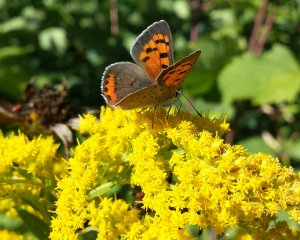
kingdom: Animalia
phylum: Arthropoda
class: Insecta
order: Lepidoptera
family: Lycaenidae
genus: Lycaena
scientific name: Lycaena phlaeas
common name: American Copper
